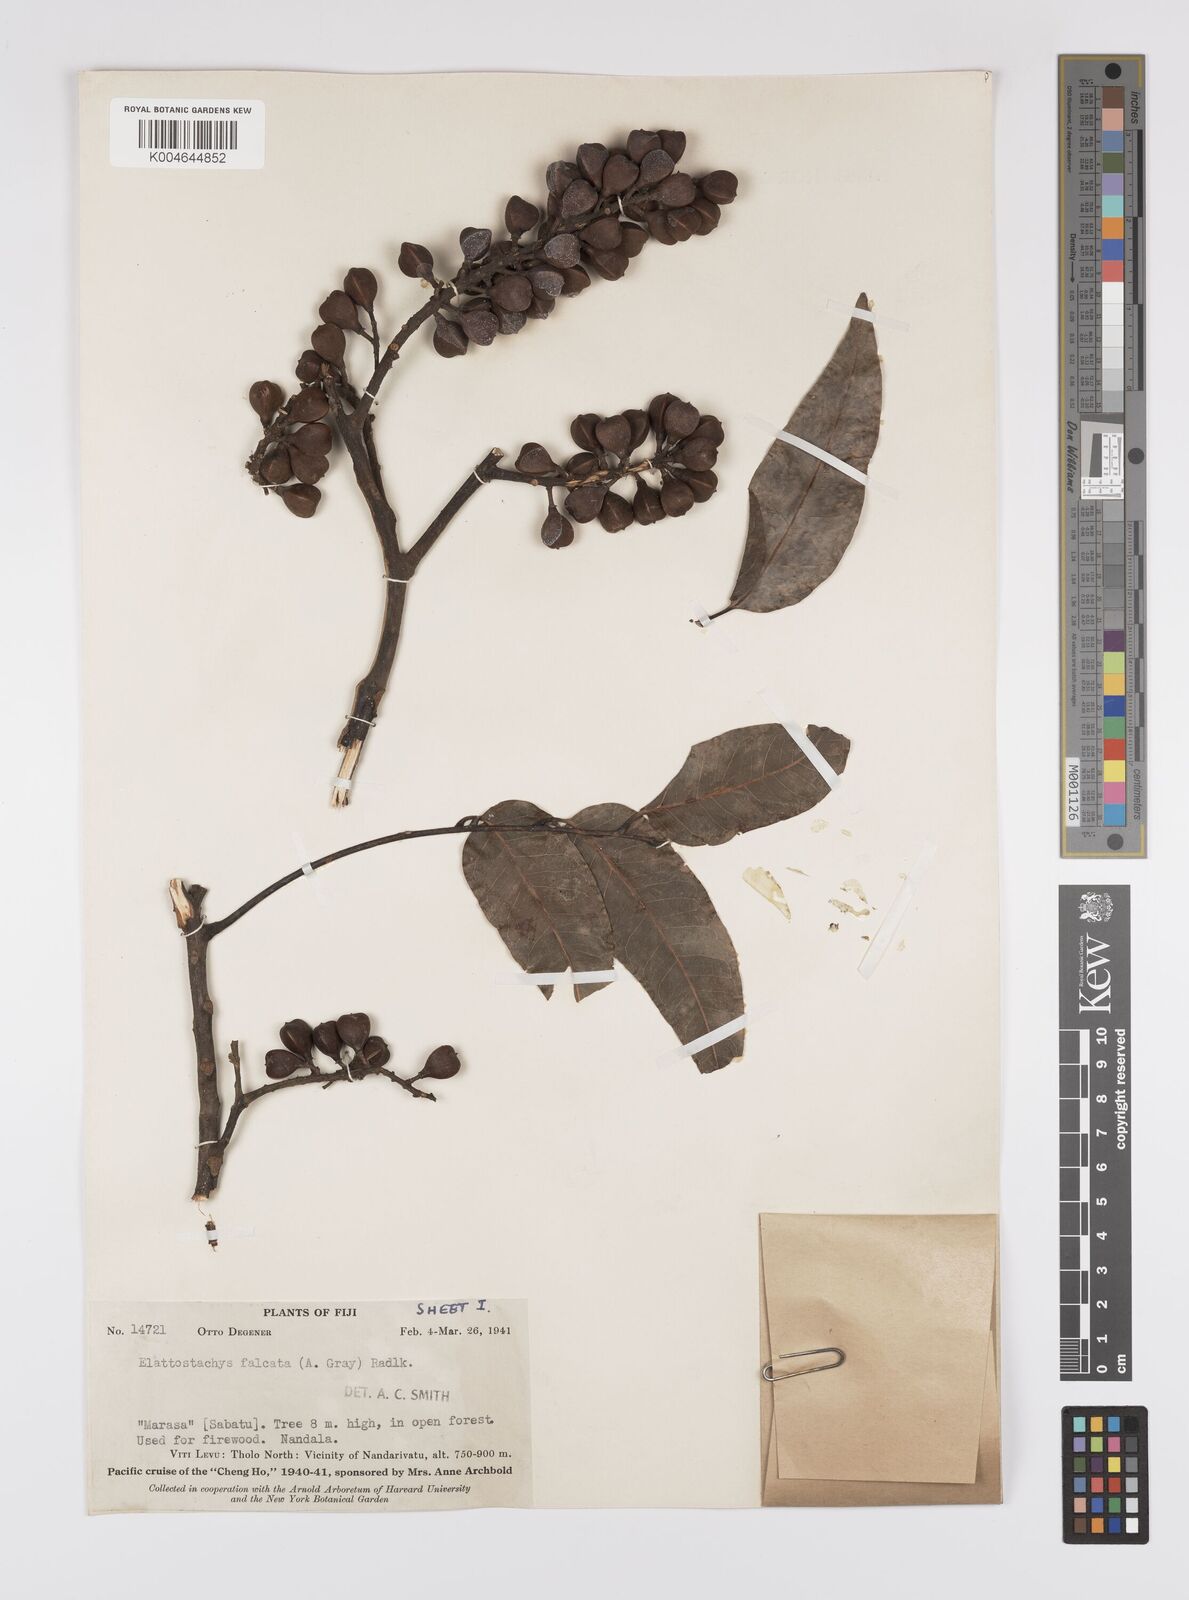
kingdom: Plantae
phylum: Tracheophyta
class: Magnoliopsida
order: Sapindales
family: Sapindaceae
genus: Elattostachys
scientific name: Elattostachys apetala
